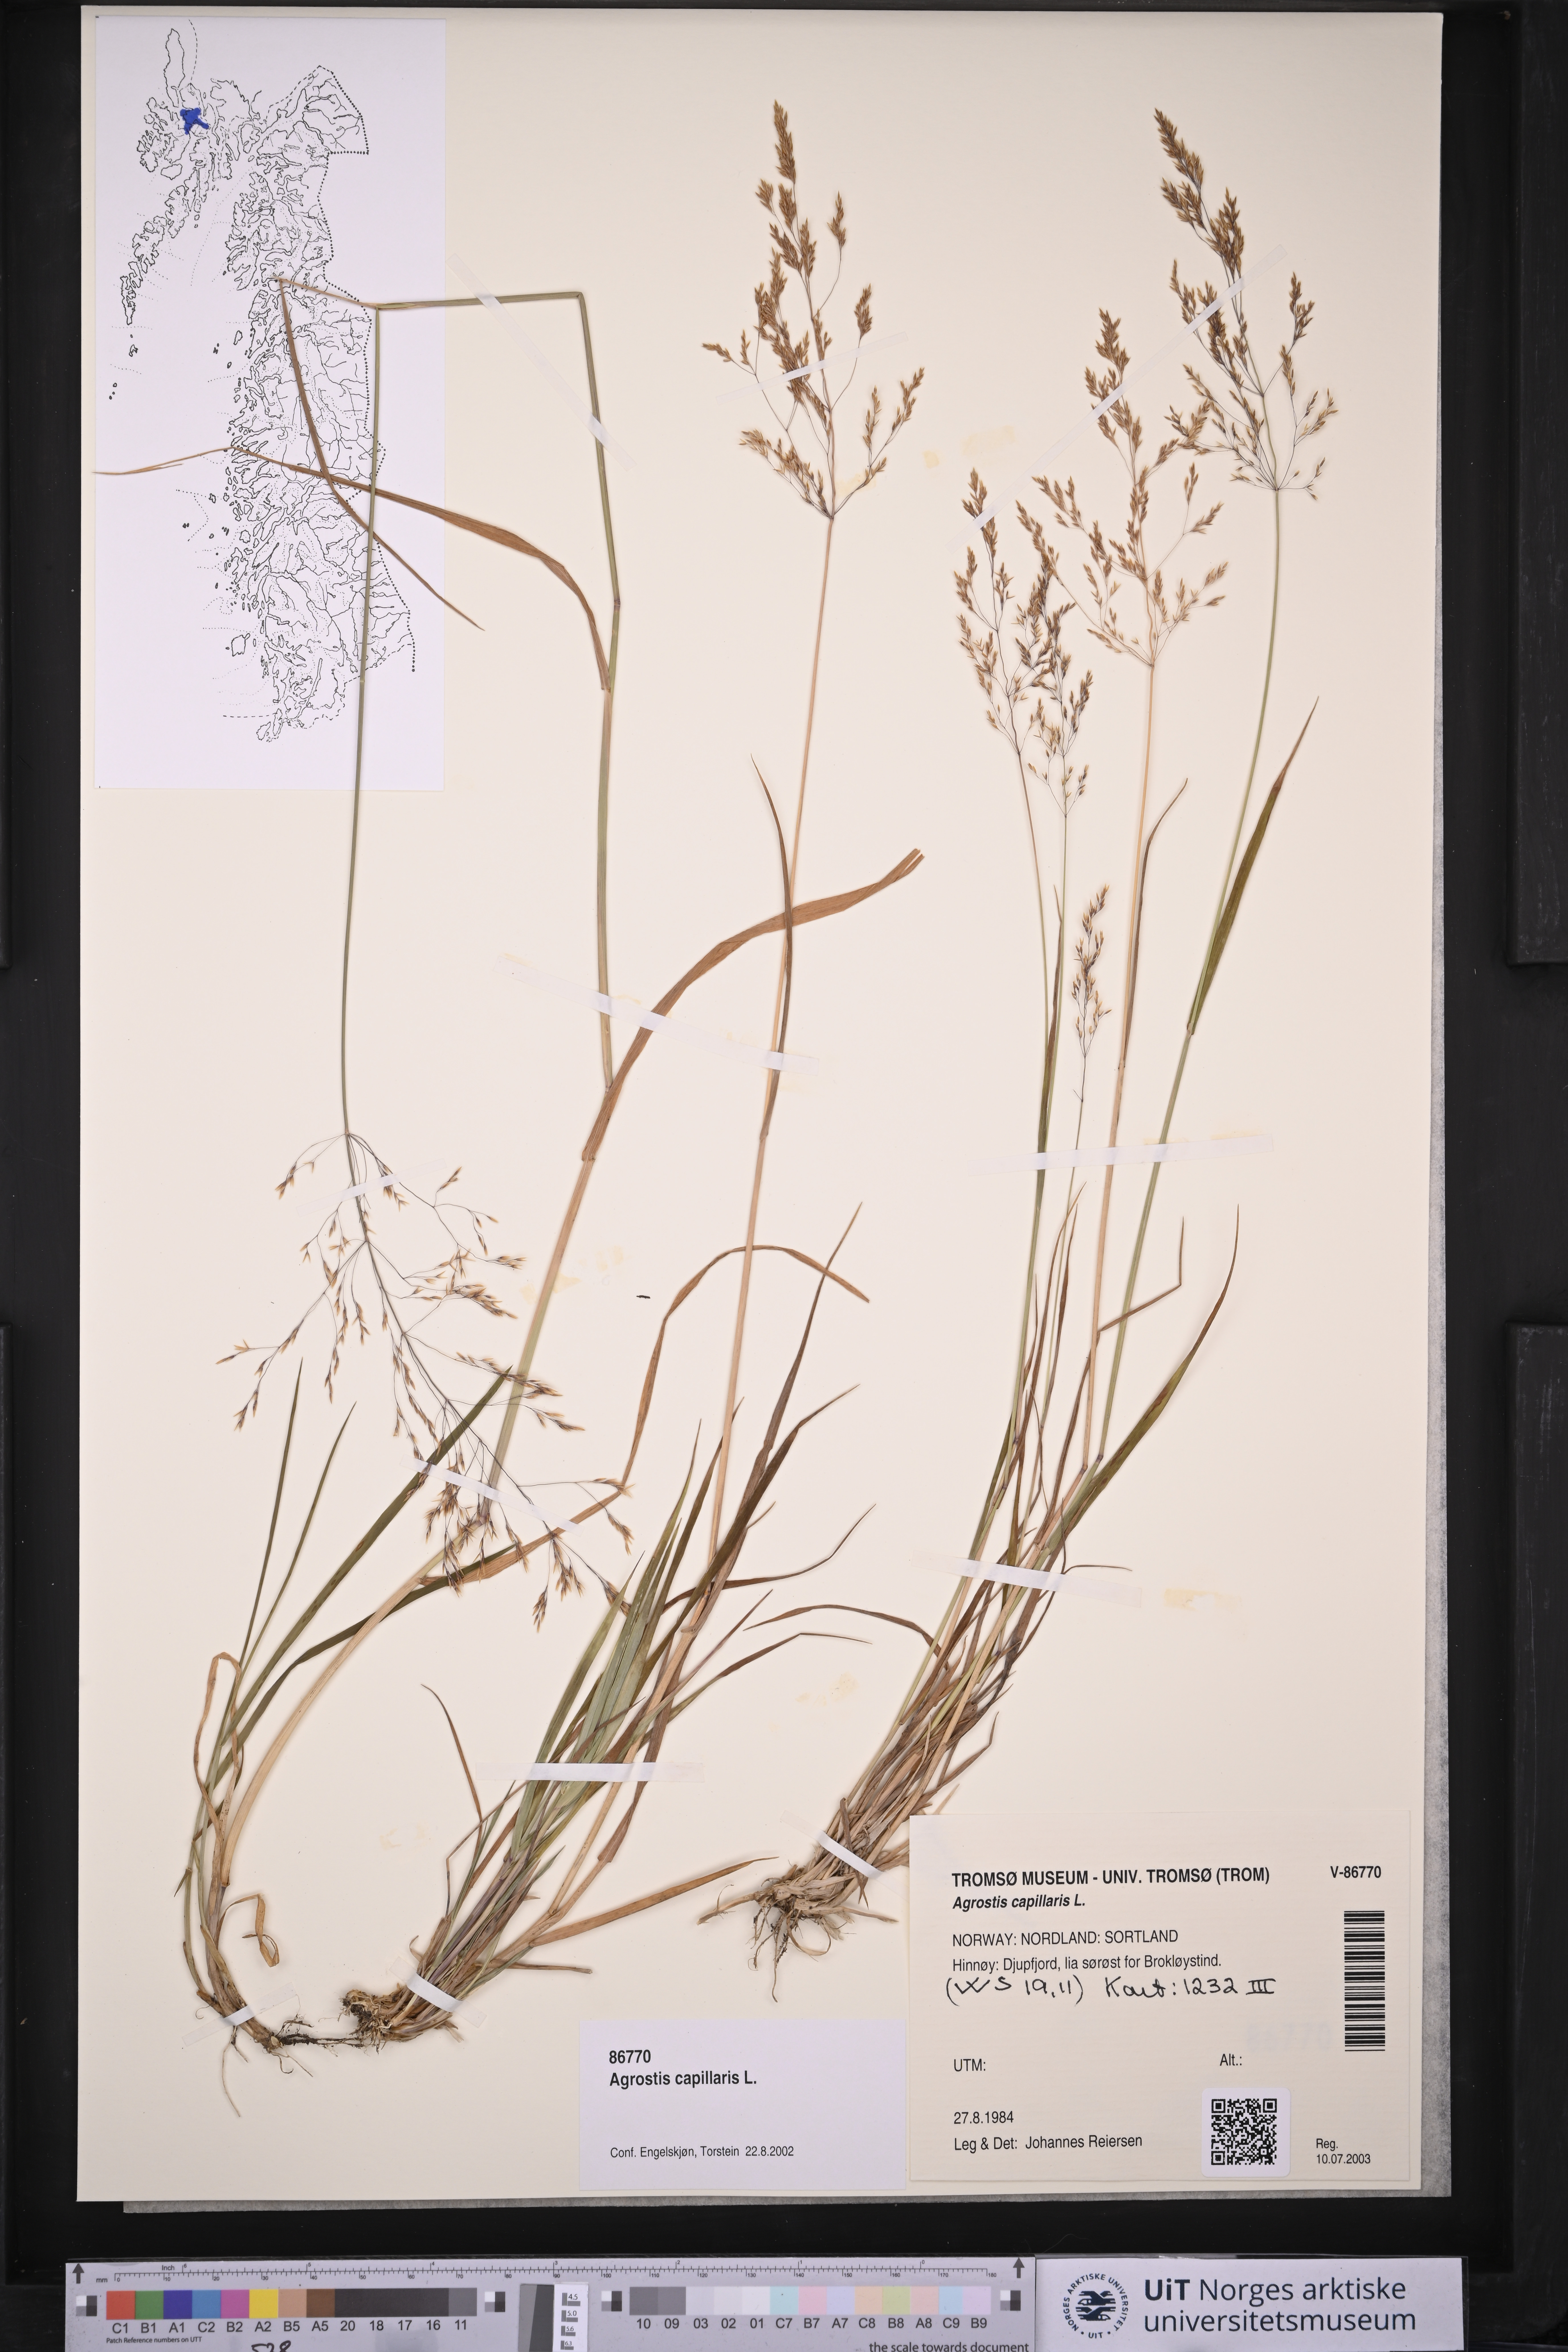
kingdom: Plantae
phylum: Tracheophyta
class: Liliopsida
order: Poales
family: Poaceae
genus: Agrostis
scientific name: Agrostis capillaris
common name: Colonial bentgrass
